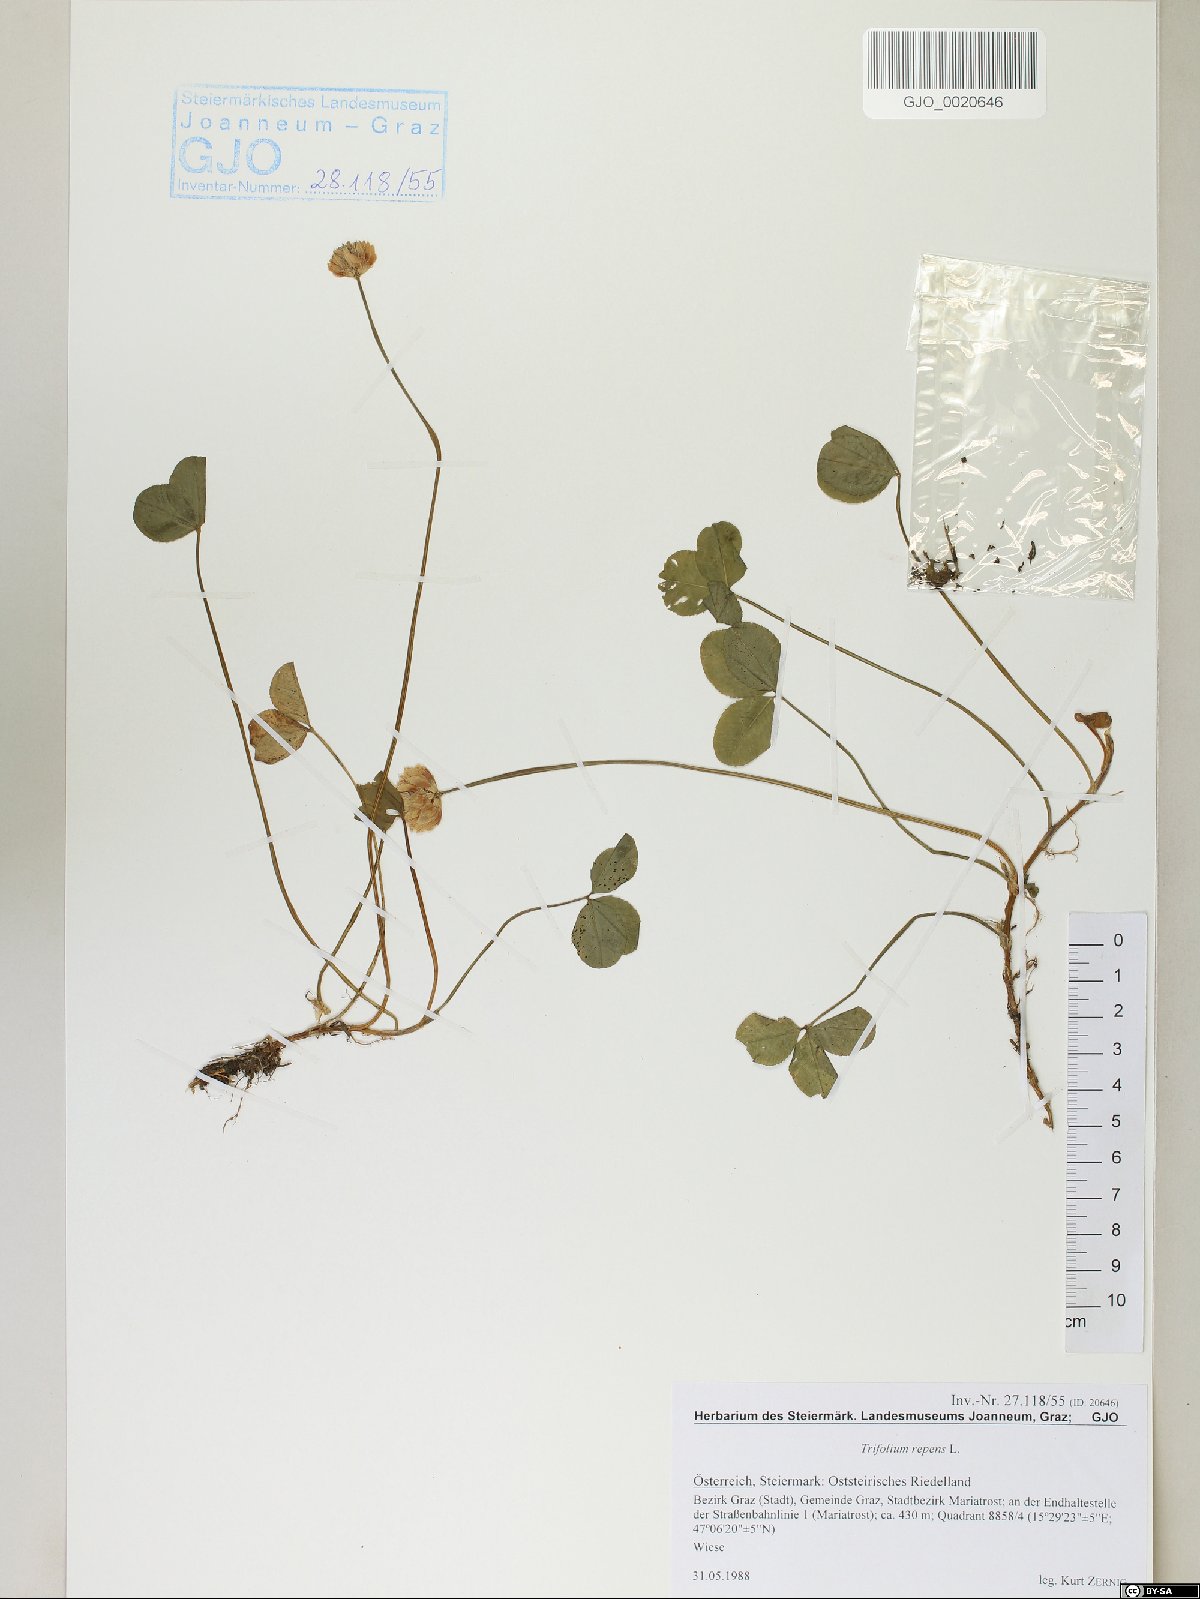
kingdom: Plantae
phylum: Tracheophyta
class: Magnoliopsida
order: Fabales
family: Fabaceae
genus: Trifolium
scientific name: Trifolium repens
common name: White clover
